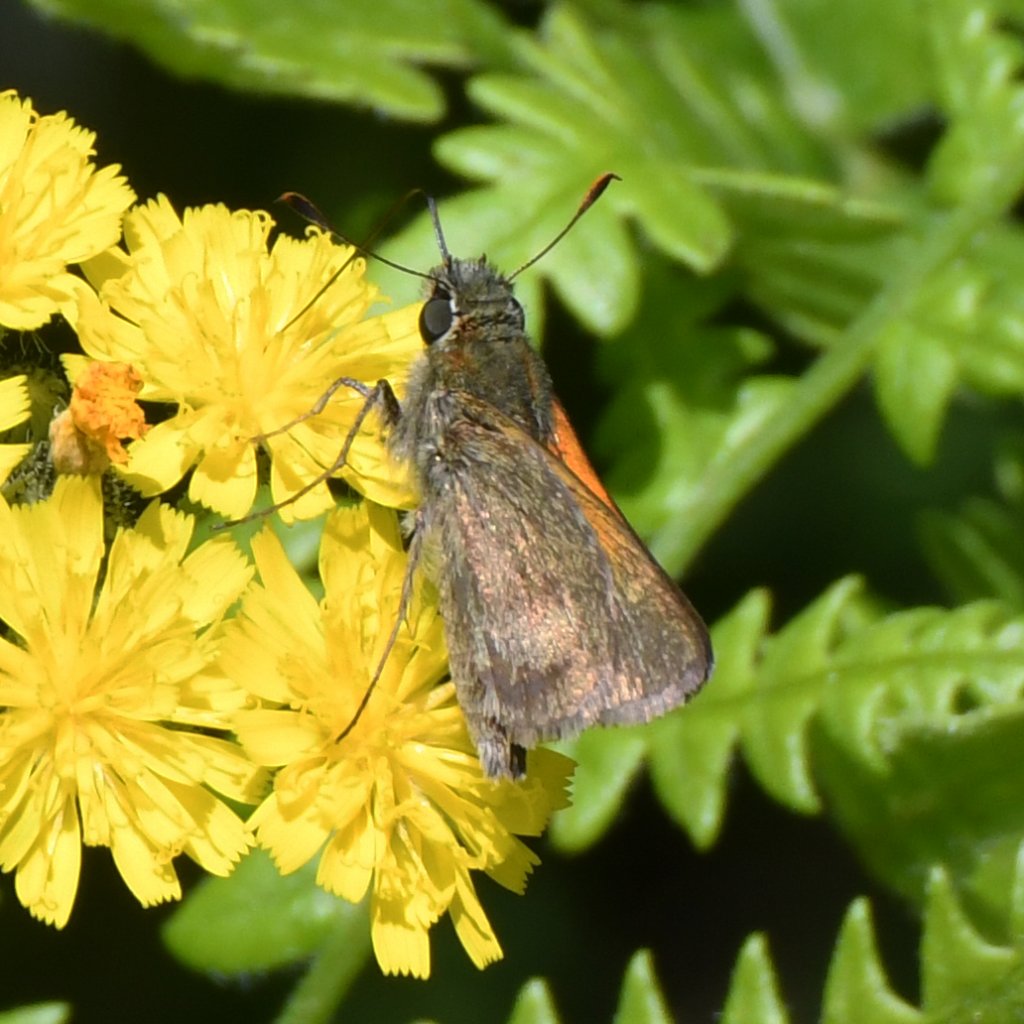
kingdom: Animalia
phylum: Arthropoda
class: Insecta
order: Lepidoptera
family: Hesperiidae
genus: Polites
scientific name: Polites themistocles
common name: Tawny-edged Skipper
